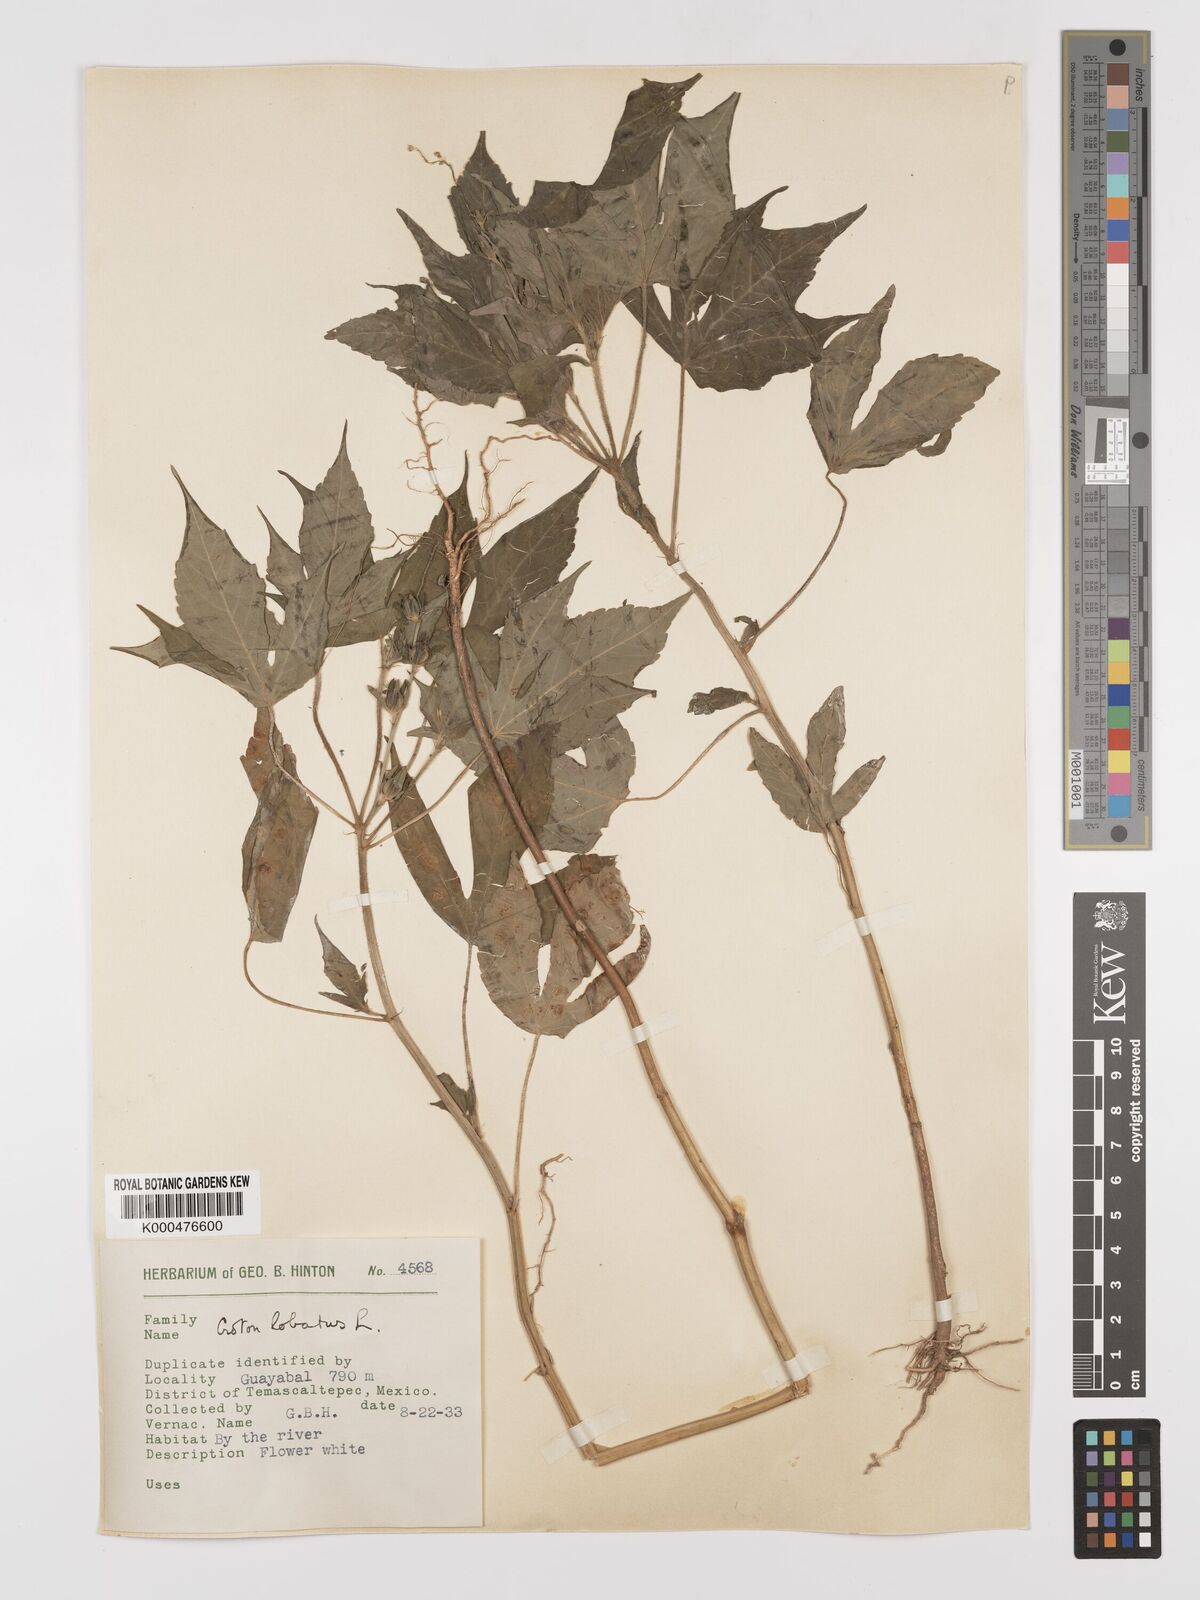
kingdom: Plantae
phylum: Tracheophyta
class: Magnoliopsida
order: Malpighiales
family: Euphorbiaceae
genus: Astraea
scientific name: Astraea lobata
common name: Lobed croton
